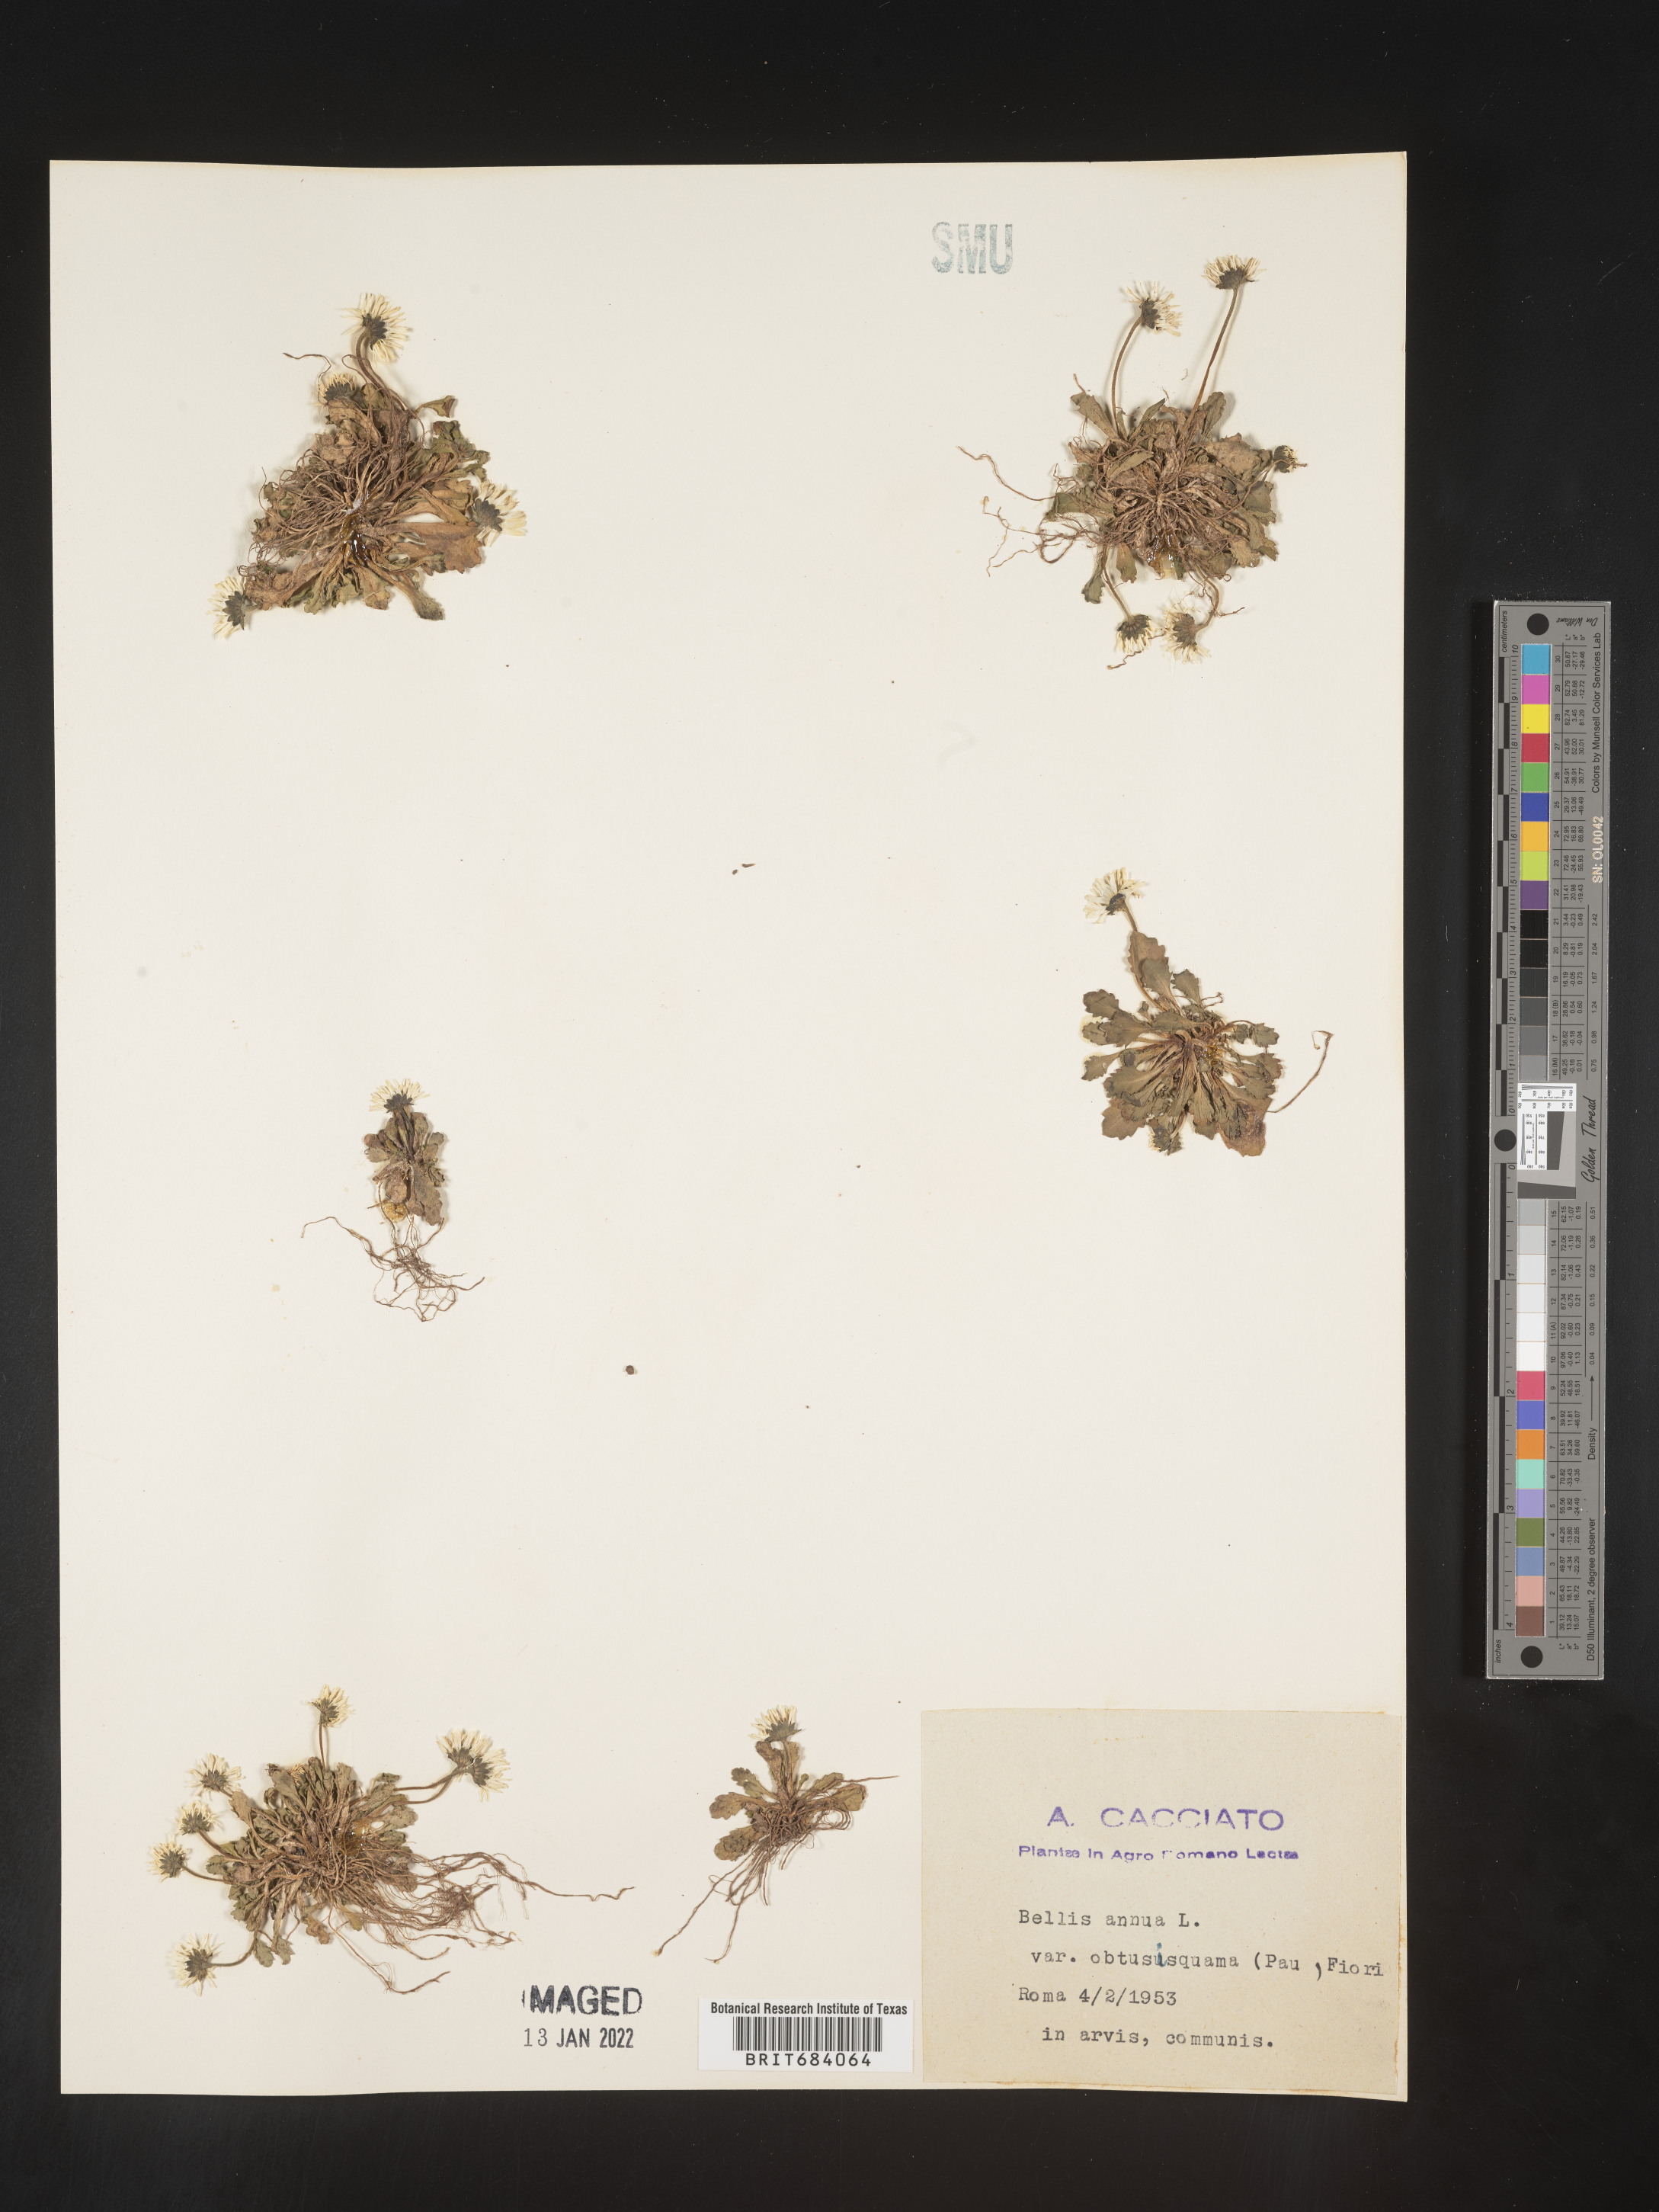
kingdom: Plantae
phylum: Tracheophyta
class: Magnoliopsida
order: Asterales
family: Asteraceae
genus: Bellis
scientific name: Bellis
